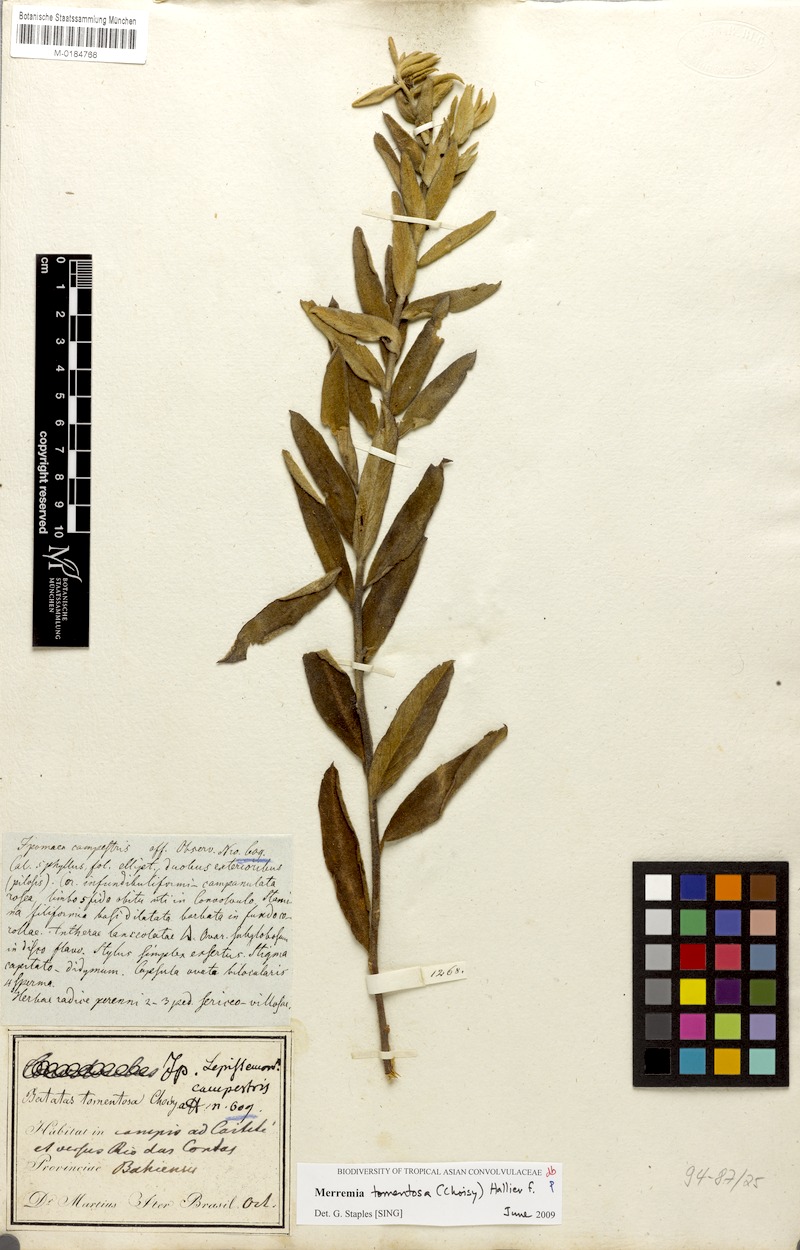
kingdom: Plantae
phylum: Tracheophyta
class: Magnoliopsida
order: Solanales
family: Convolvulaceae
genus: Distimake
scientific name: Distimake tomentosus
